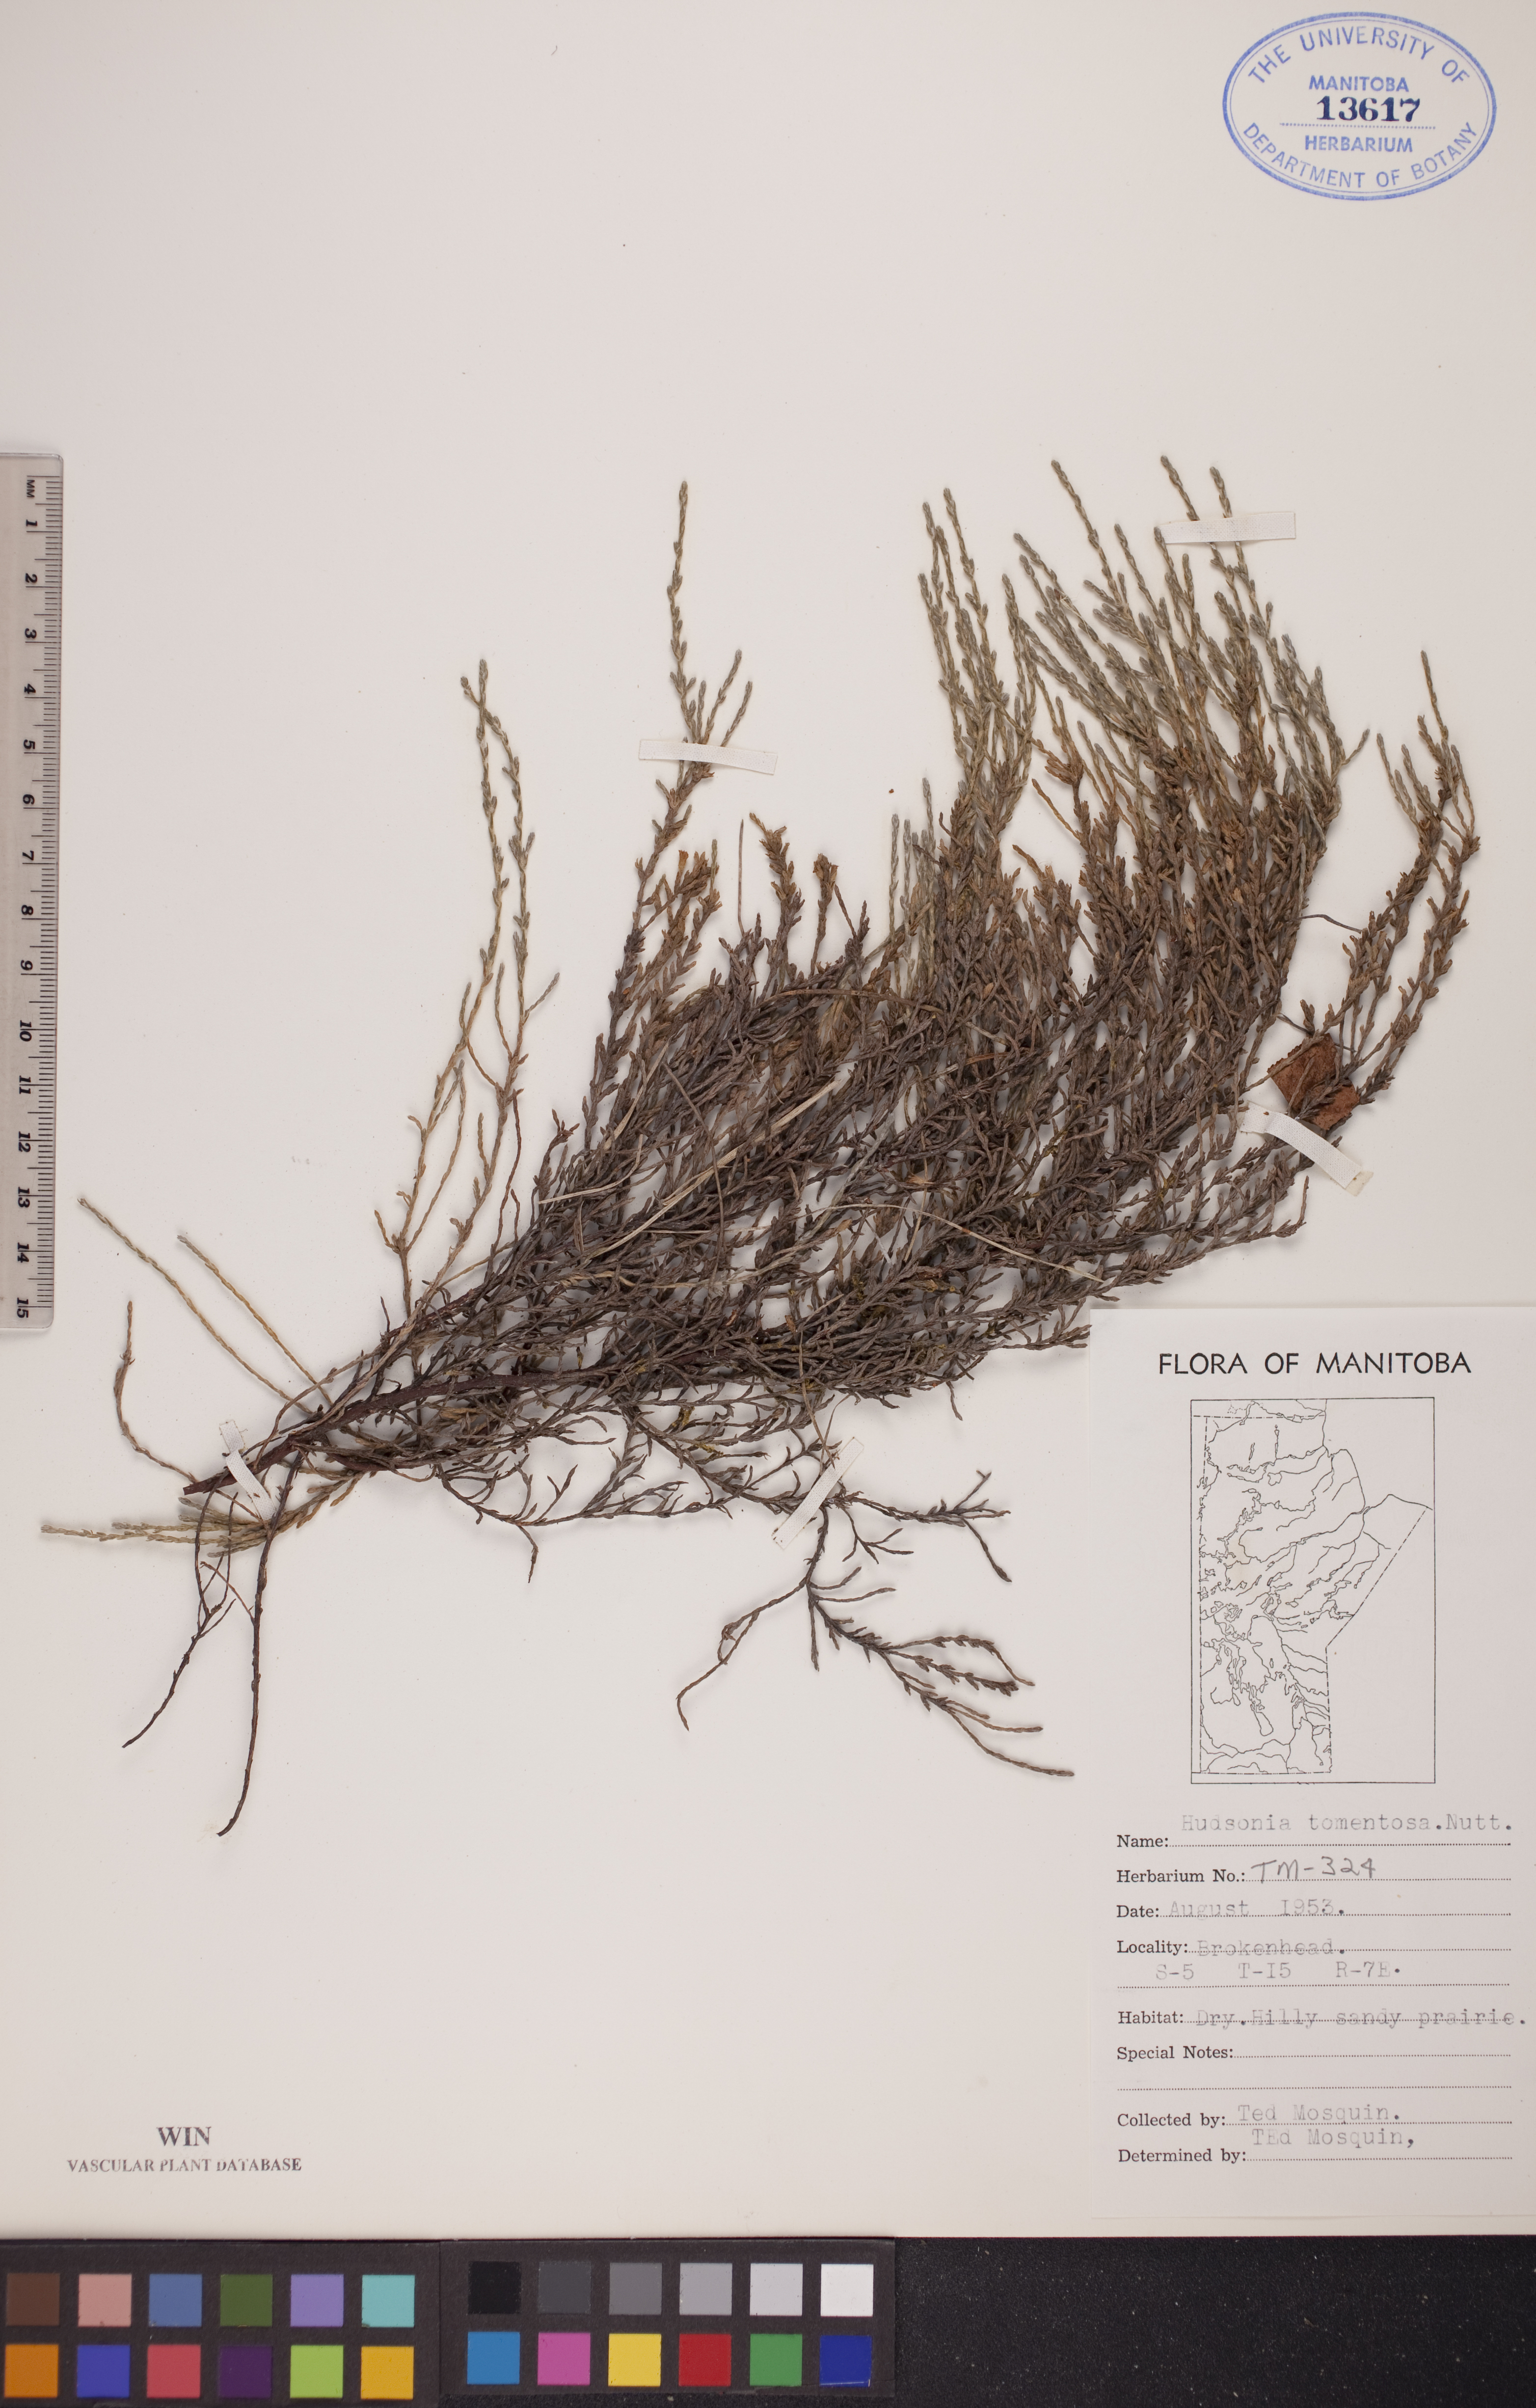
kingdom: Plantae
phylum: Tracheophyta
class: Magnoliopsida
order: Malvales
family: Cistaceae
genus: Hudsonia
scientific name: Hudsonia tomentosa
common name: Beach-heath
